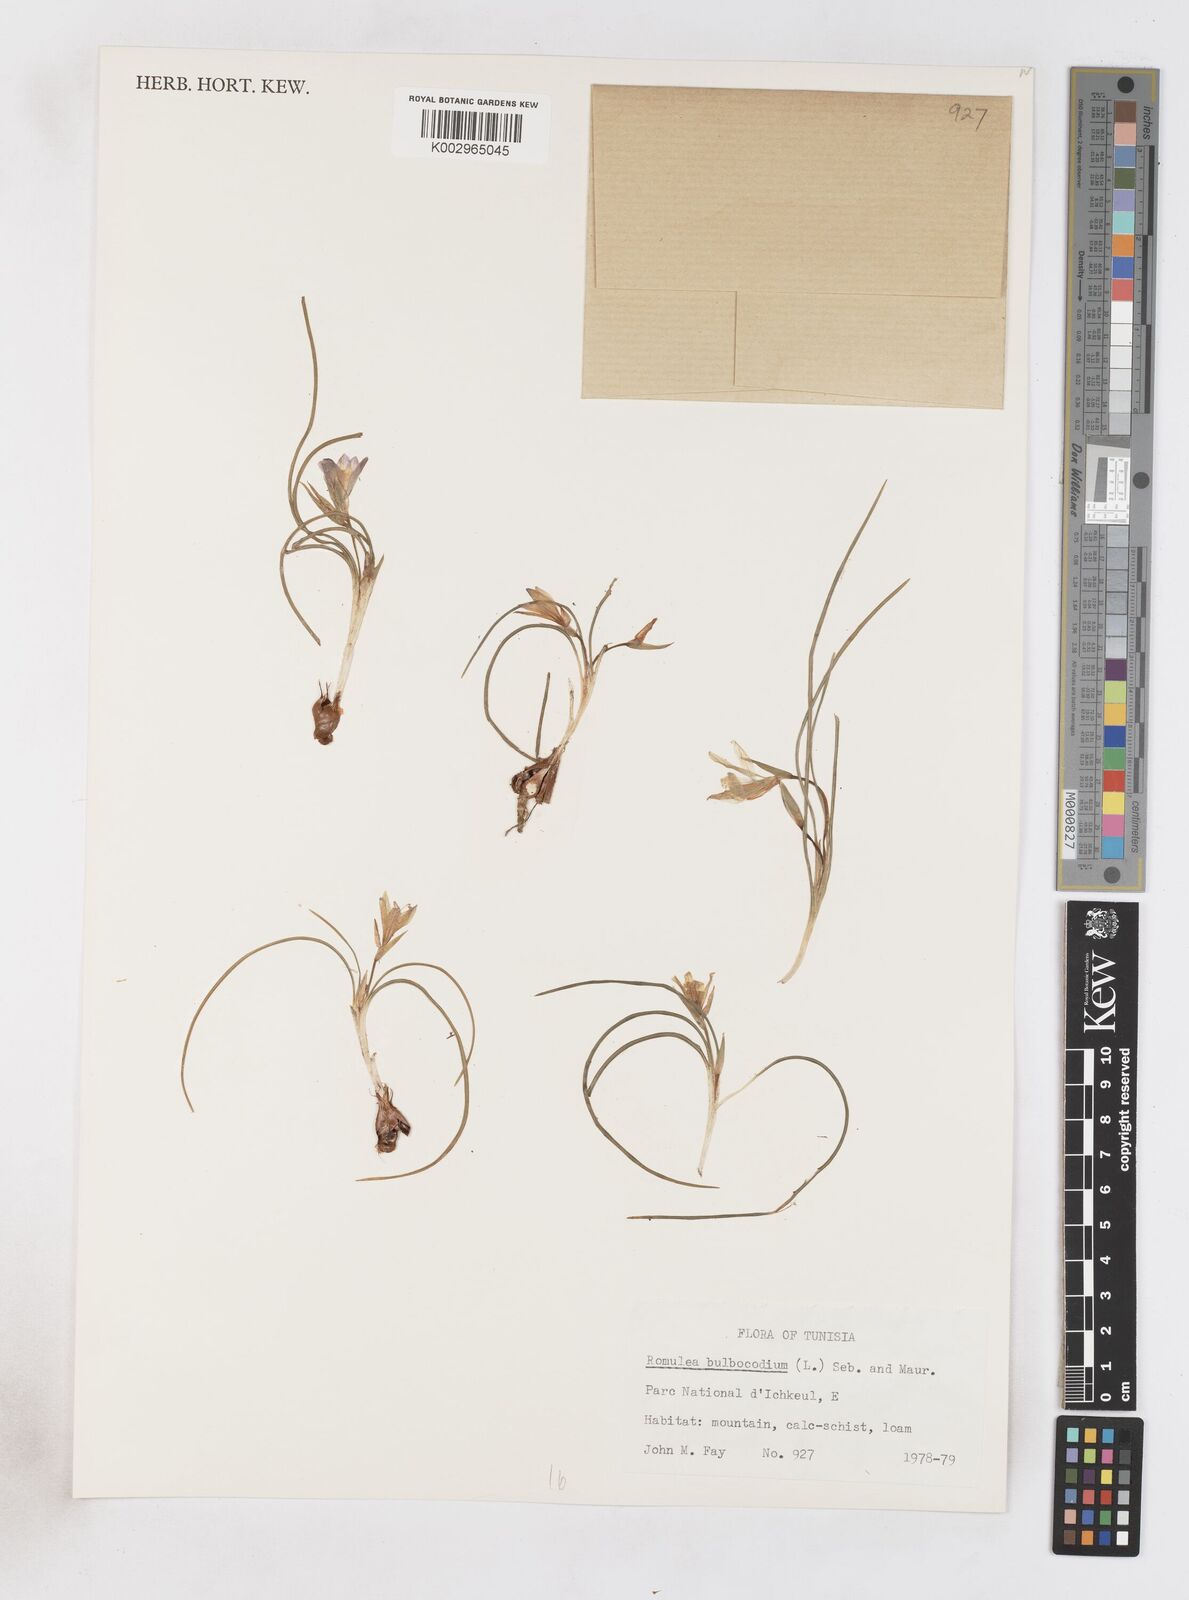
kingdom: Plantae
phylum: Tracheophyta
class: Liliopsida
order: Asparagales
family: Iridaceae
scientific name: Iridaceae
